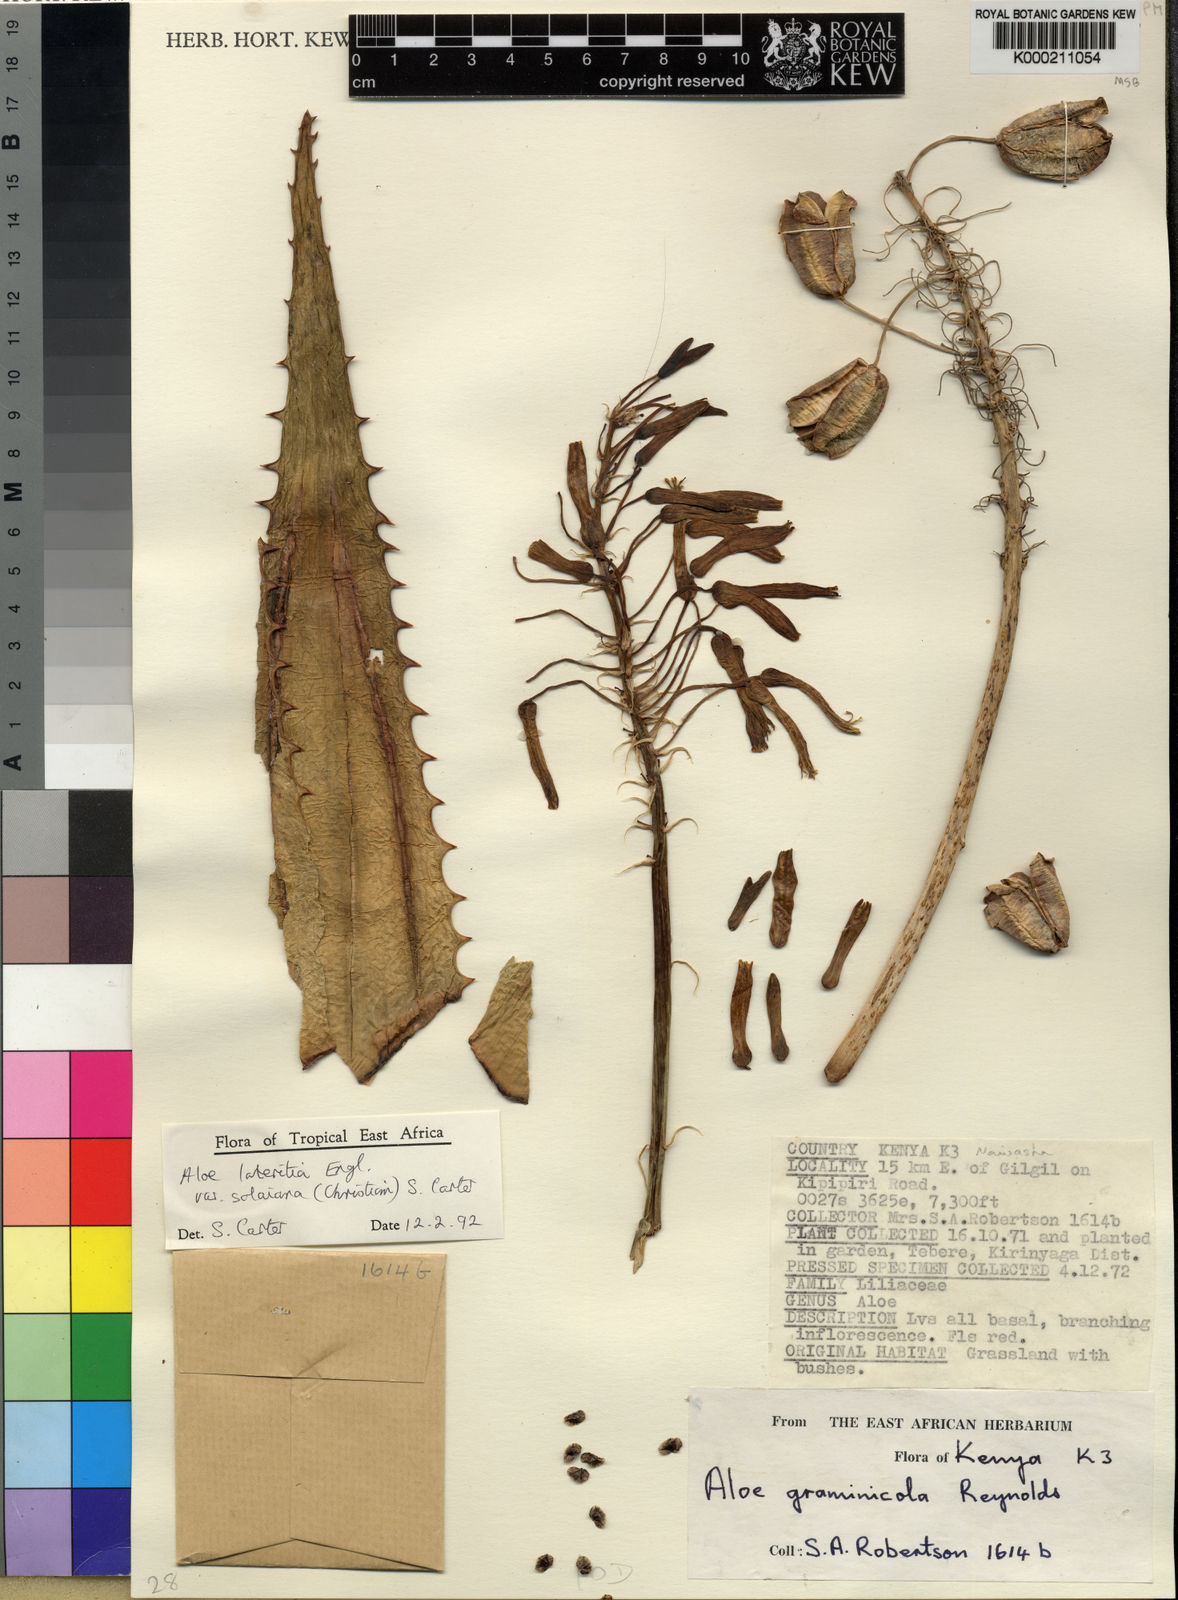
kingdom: Plantae
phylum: Tracheophyta
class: Liliopsida
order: Asparagales
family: Asphodelaceae
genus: Aloe
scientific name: Aloe lateritia
